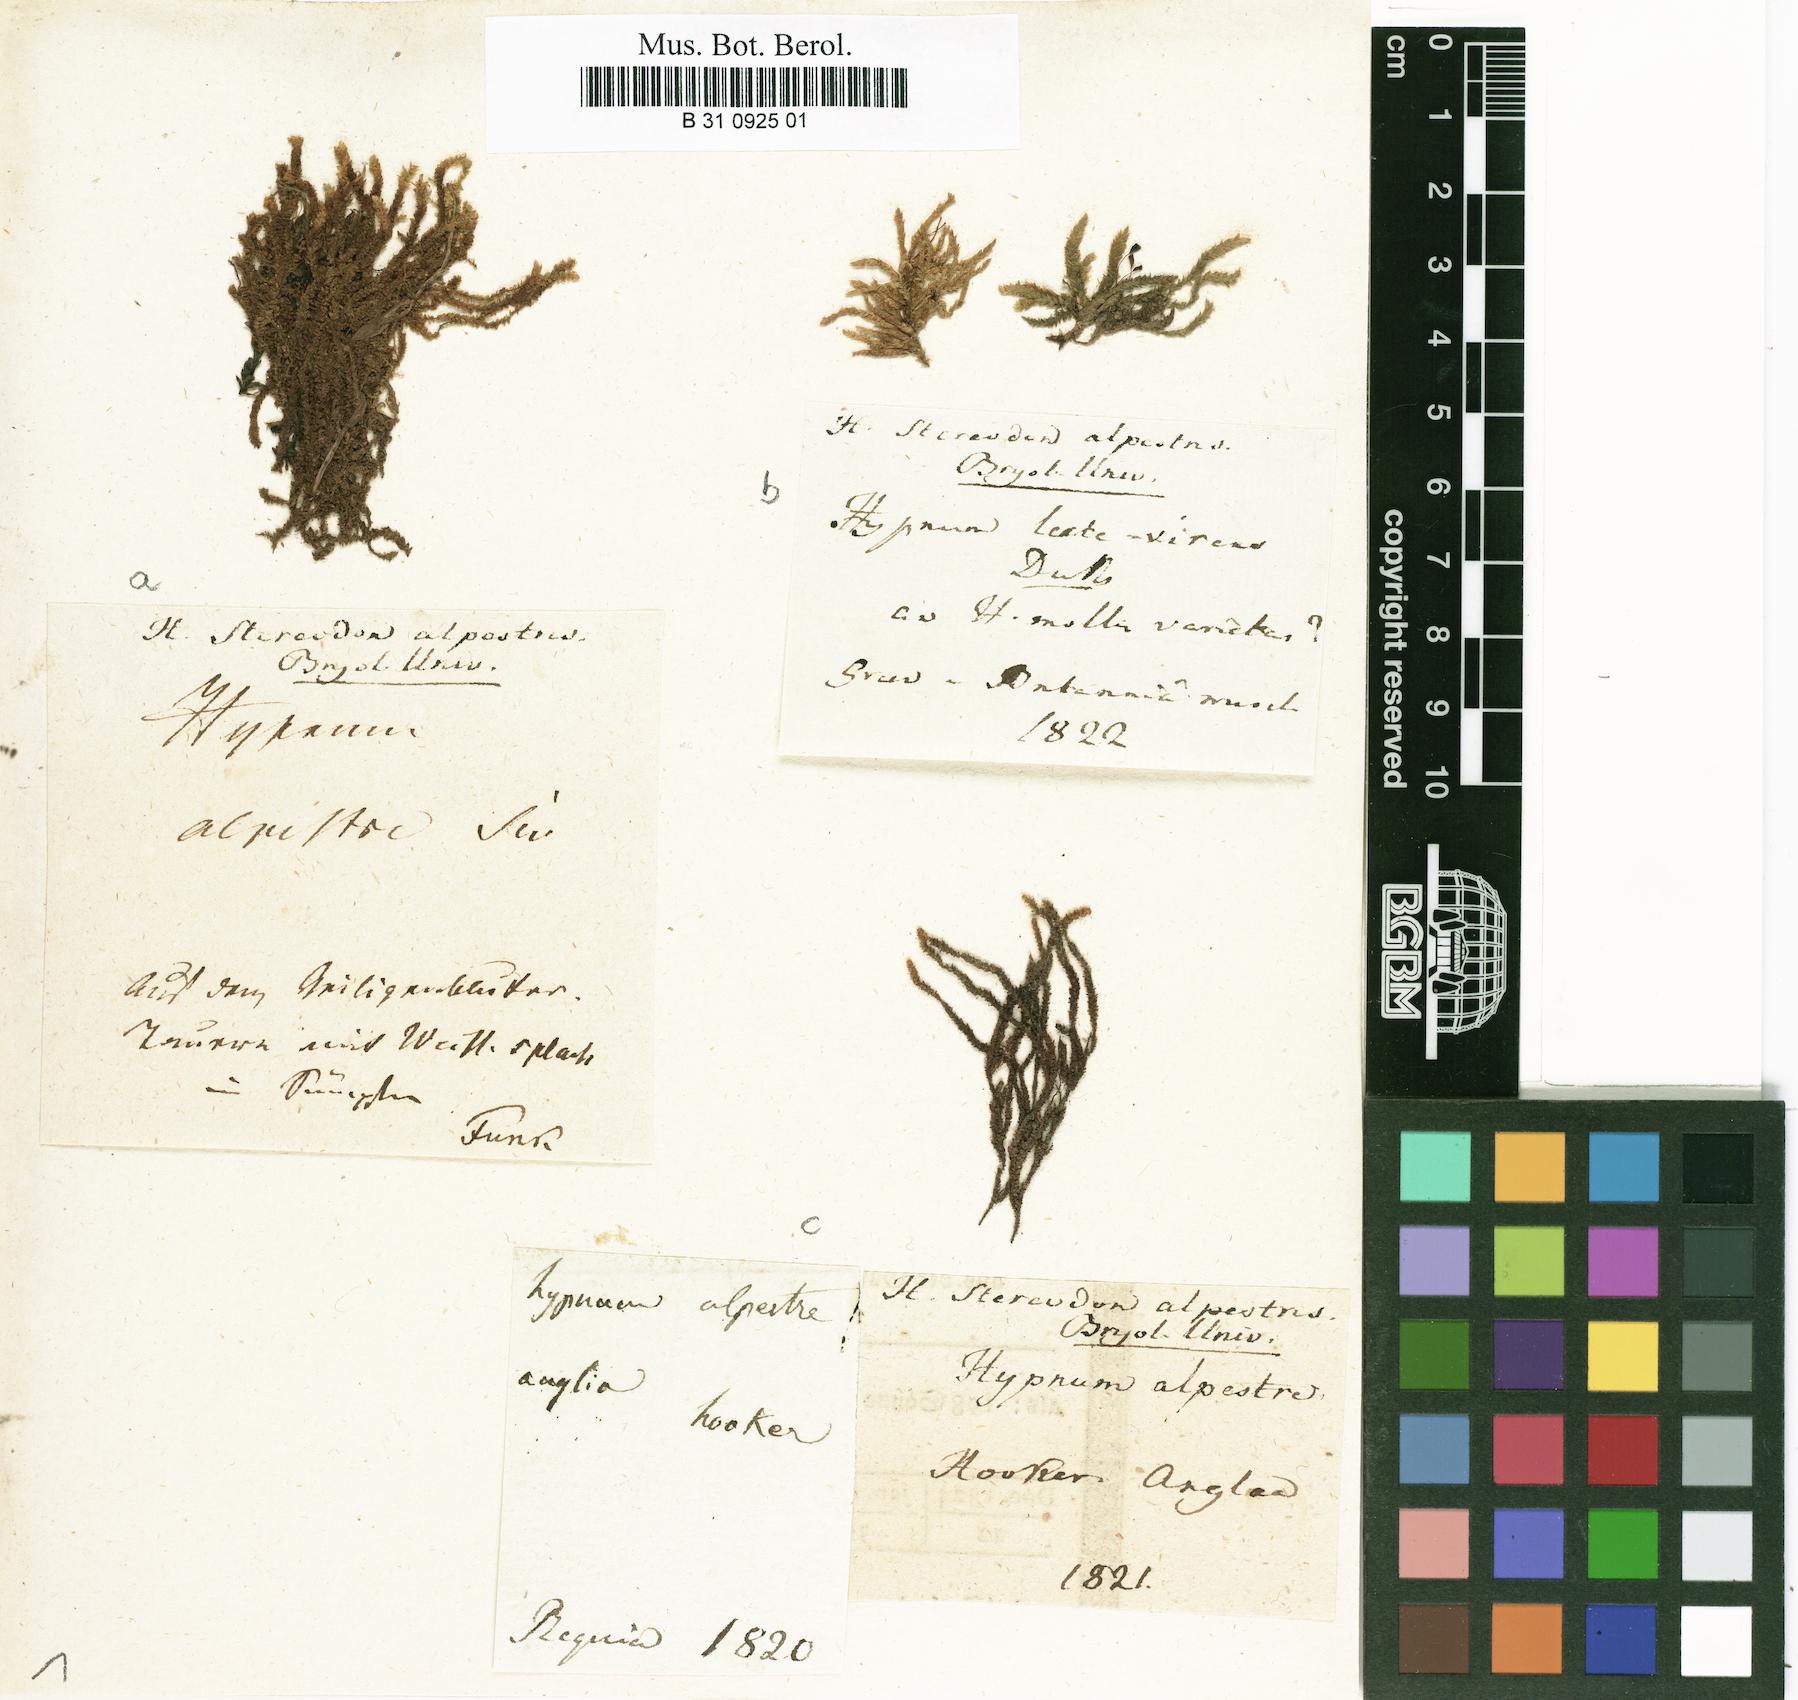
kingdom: Plantae
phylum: Bryophyta
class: Bryopsida
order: Hypnales
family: Amblystegiaceae
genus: Platyhypnum
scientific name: Platyhypnum alpestre
